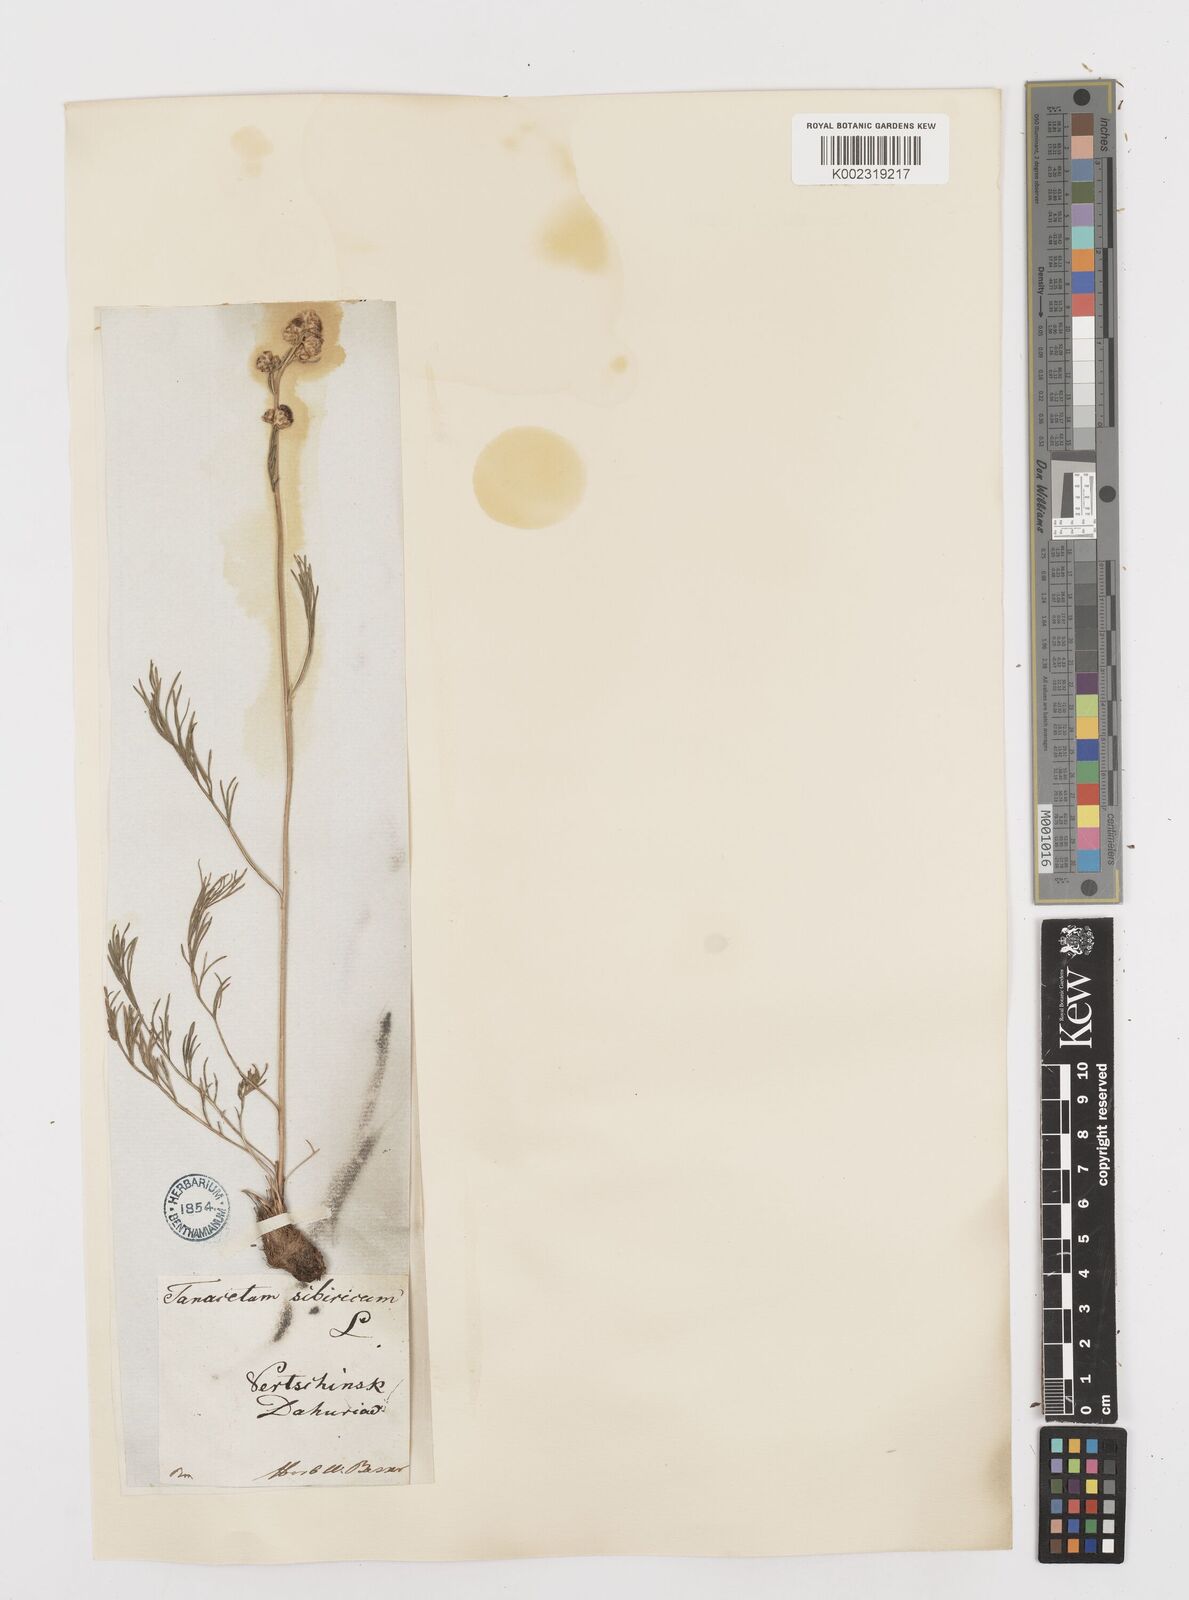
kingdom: Plantae
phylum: Tracheophyta
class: Magnoliopsida
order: Asterales
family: Asteraceae
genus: Filifolium
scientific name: Filifolium sibiricum
